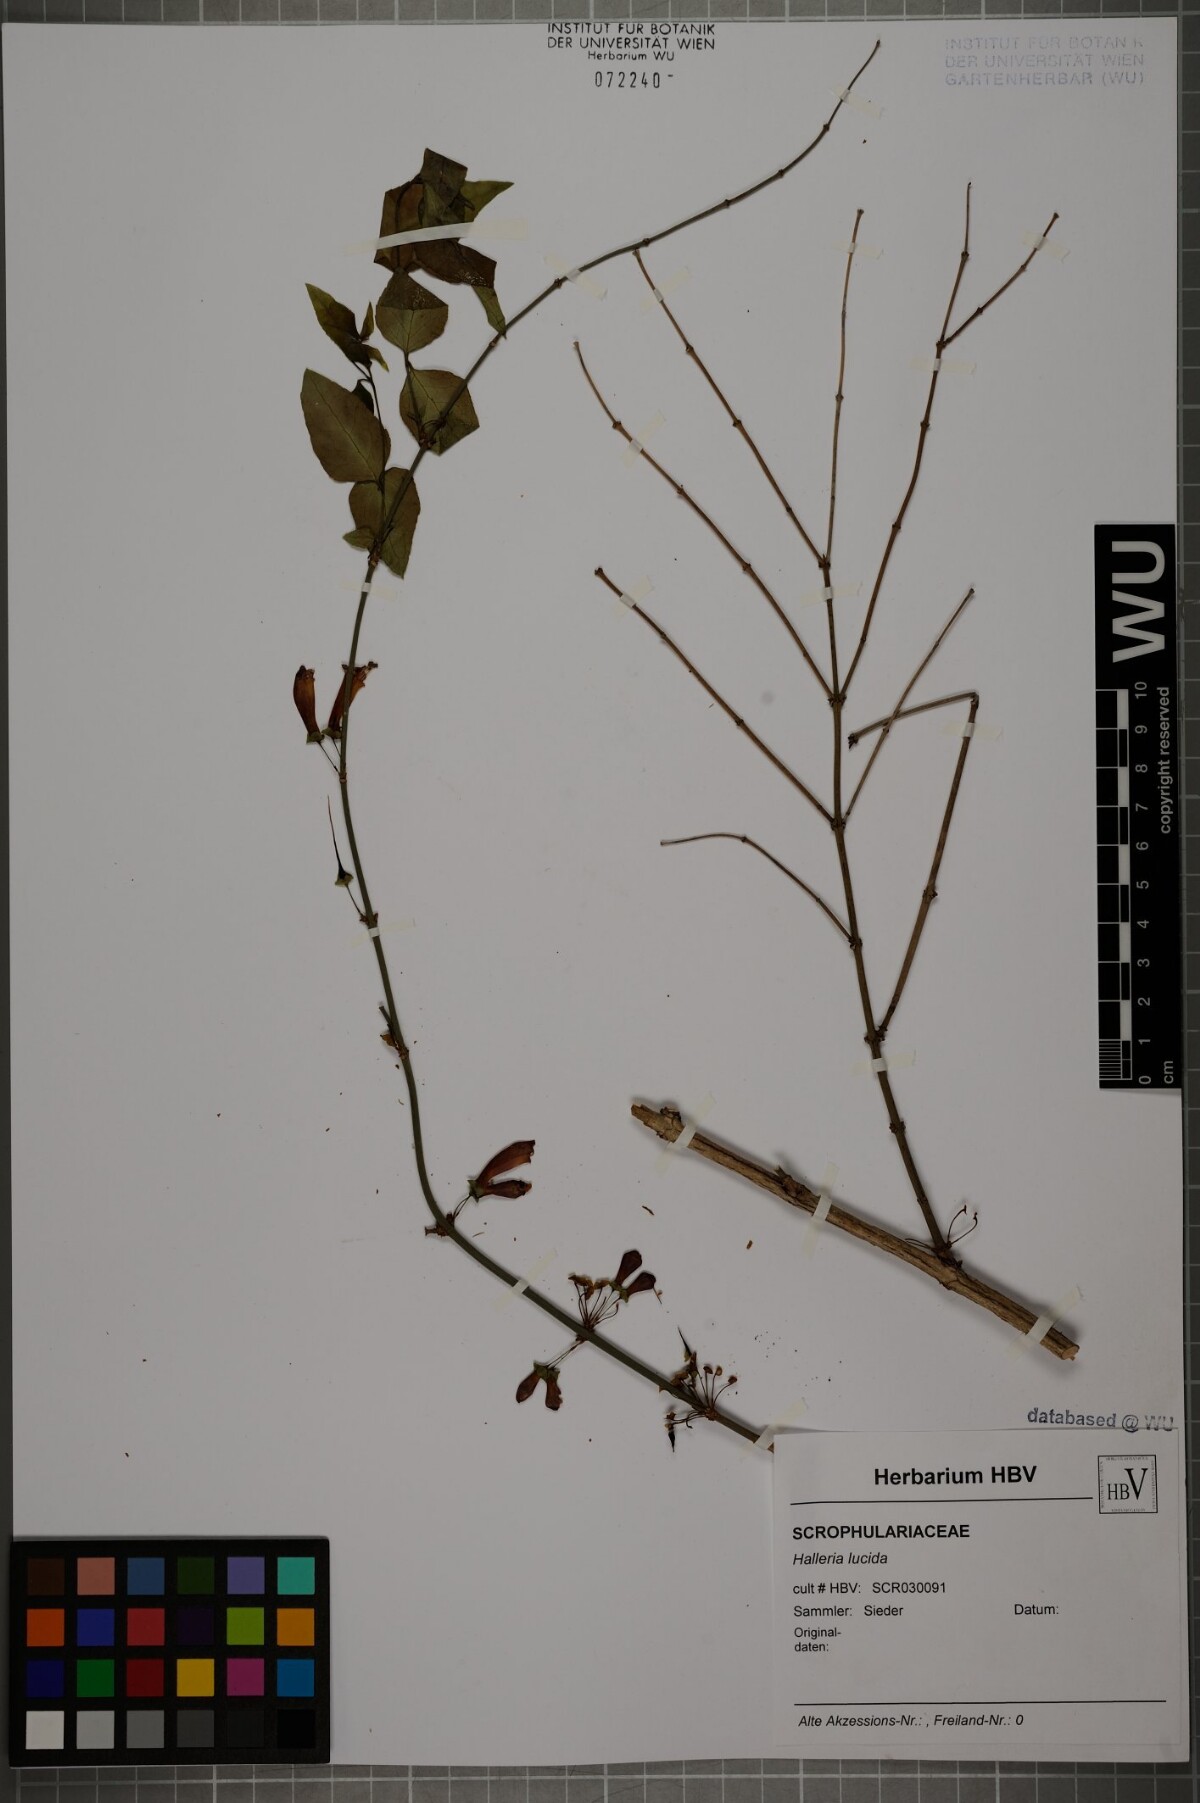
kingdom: Plantae
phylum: Tracheophyta
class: Magnoliopsida
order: Lamiales
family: Stilbaceae
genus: Halleria
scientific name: Halleria lucida
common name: Tree fuschia
